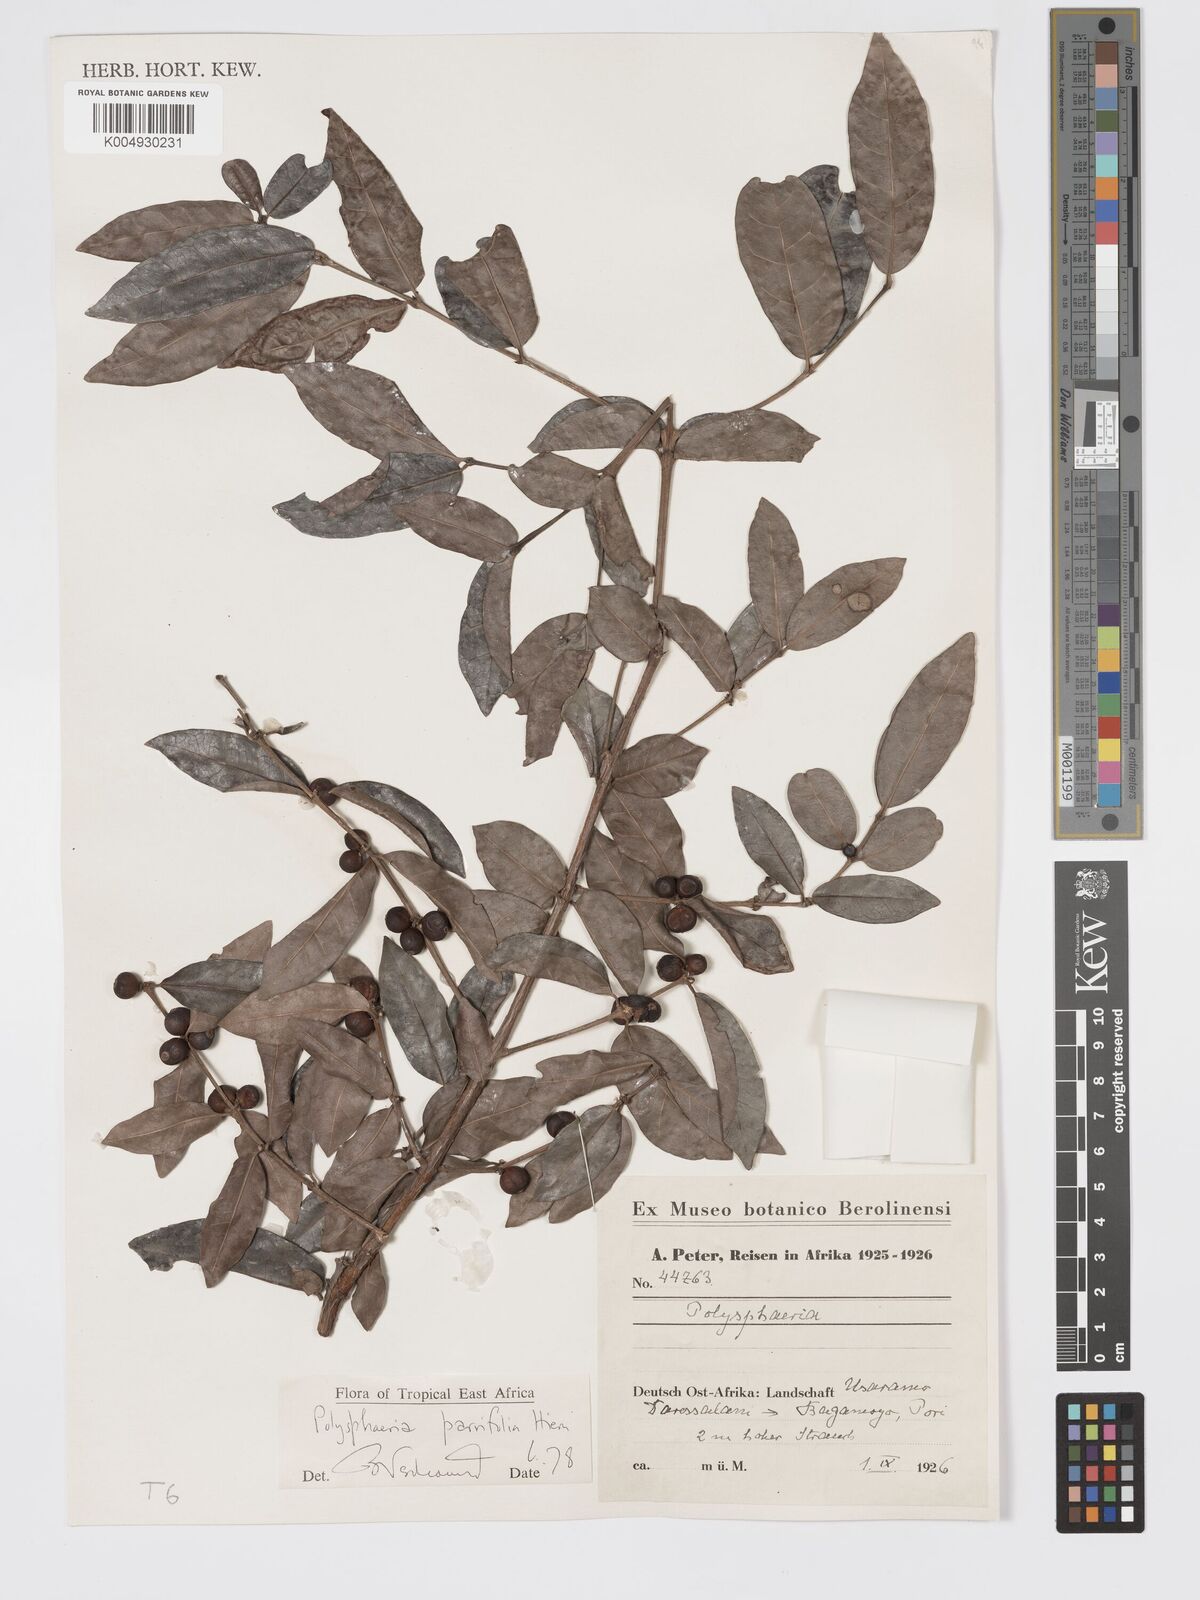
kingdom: Plantae
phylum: Tracheophyta
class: Magnoliopsida
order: Gentianales
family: Rubiaceae
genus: Polysphaeria
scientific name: Polysphaeria parvifolia
